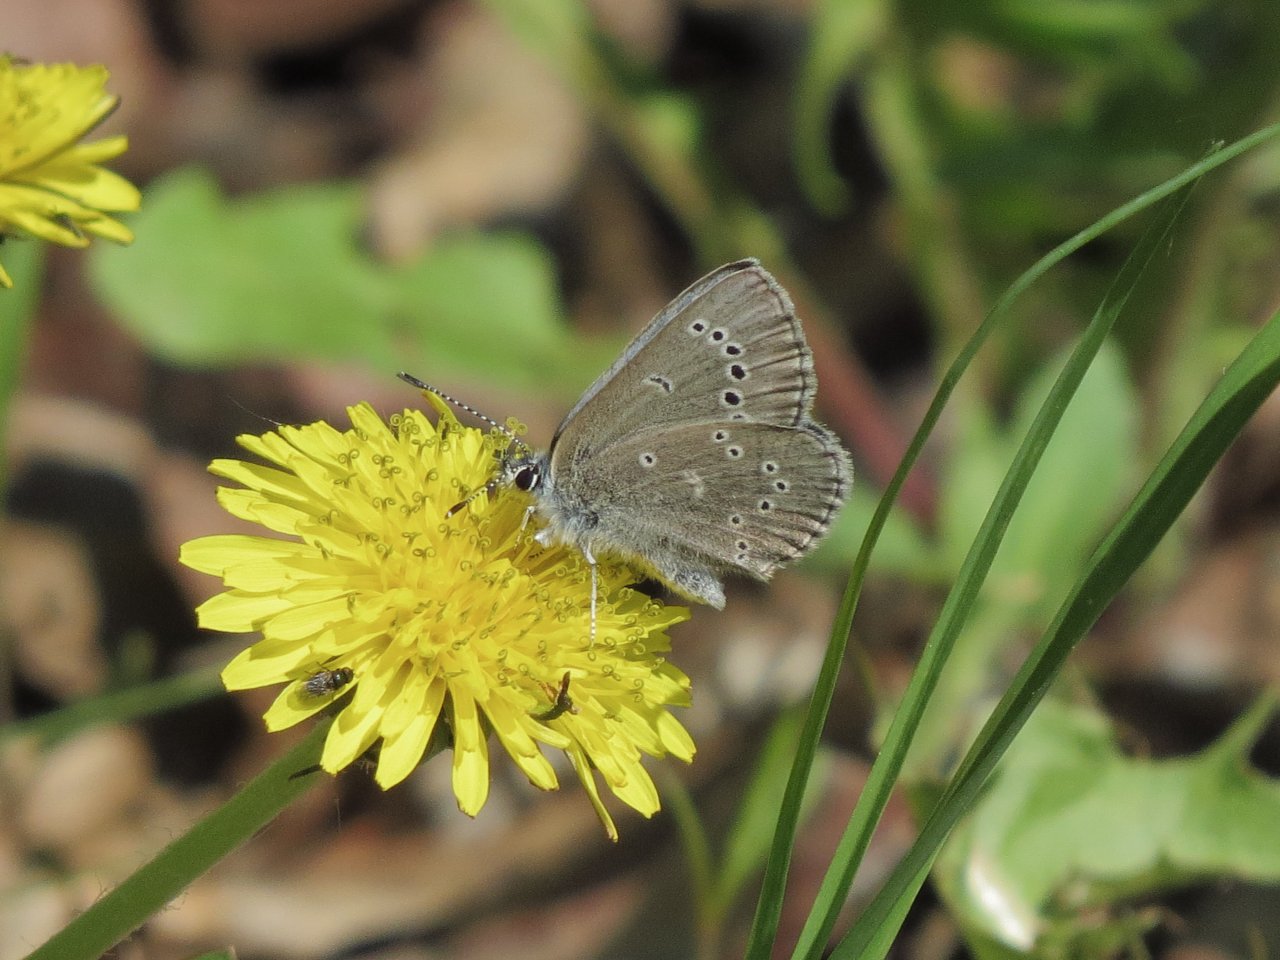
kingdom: Animalia
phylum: Arthropoda
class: Insecta
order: Lepidoptera
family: Lycaenidae
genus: Glaucopsyche
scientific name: Glaucopsyche lygdamus
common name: Silvery Blue
